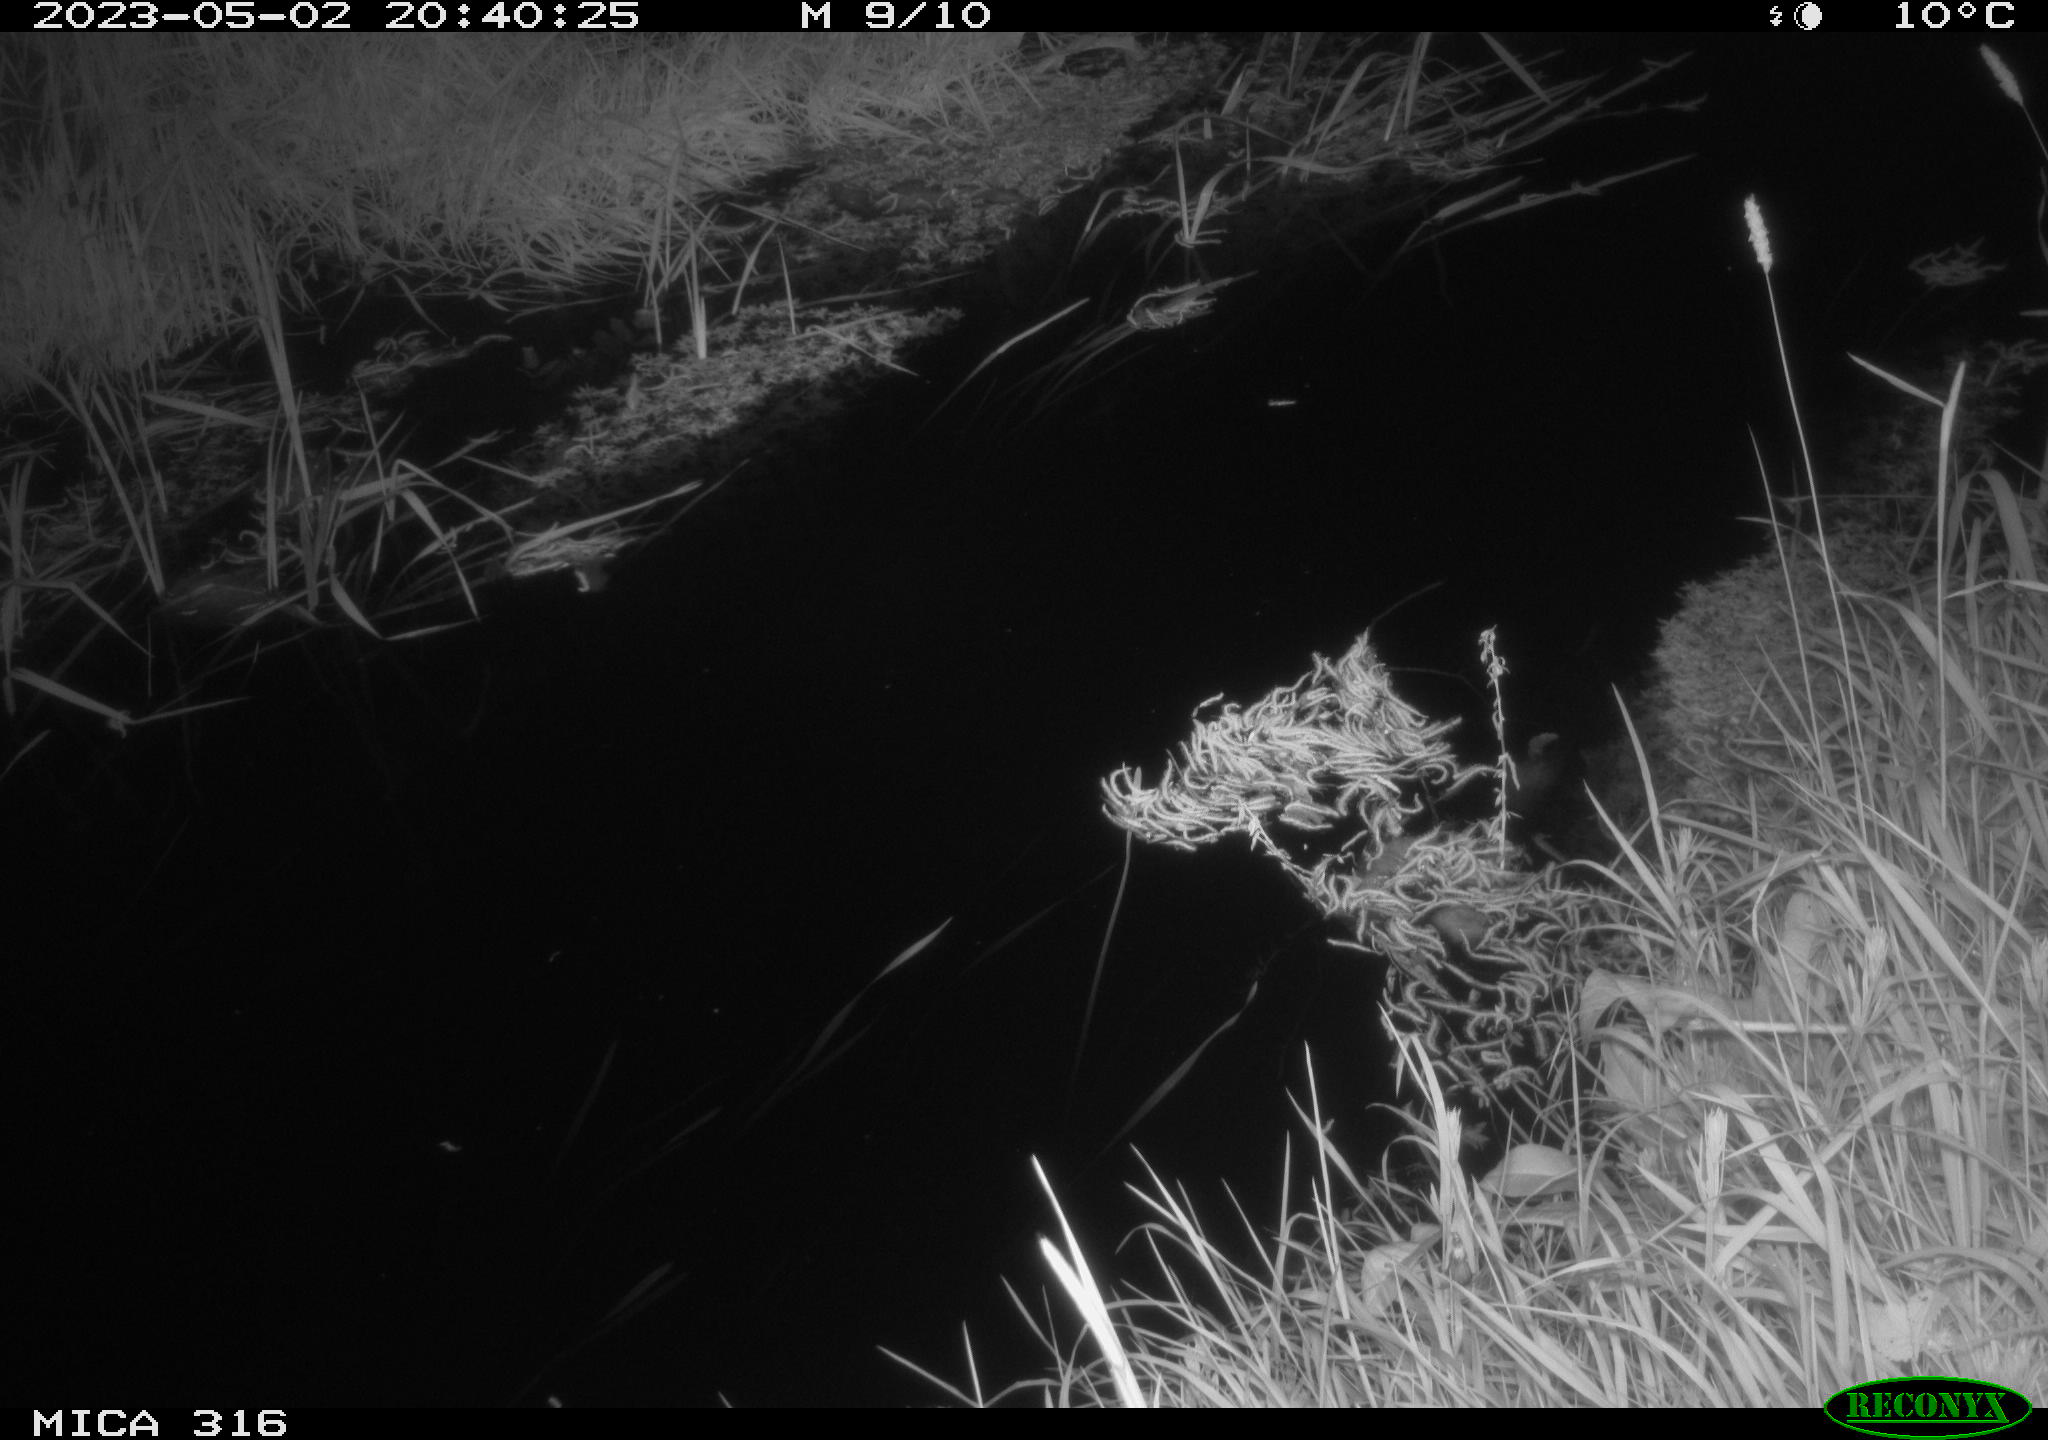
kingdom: Animalia
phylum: Chordata
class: Aves
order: Gruiformes
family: Rallidae
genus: Gallinula
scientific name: Gallinula chloropus
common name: Common moorhen
